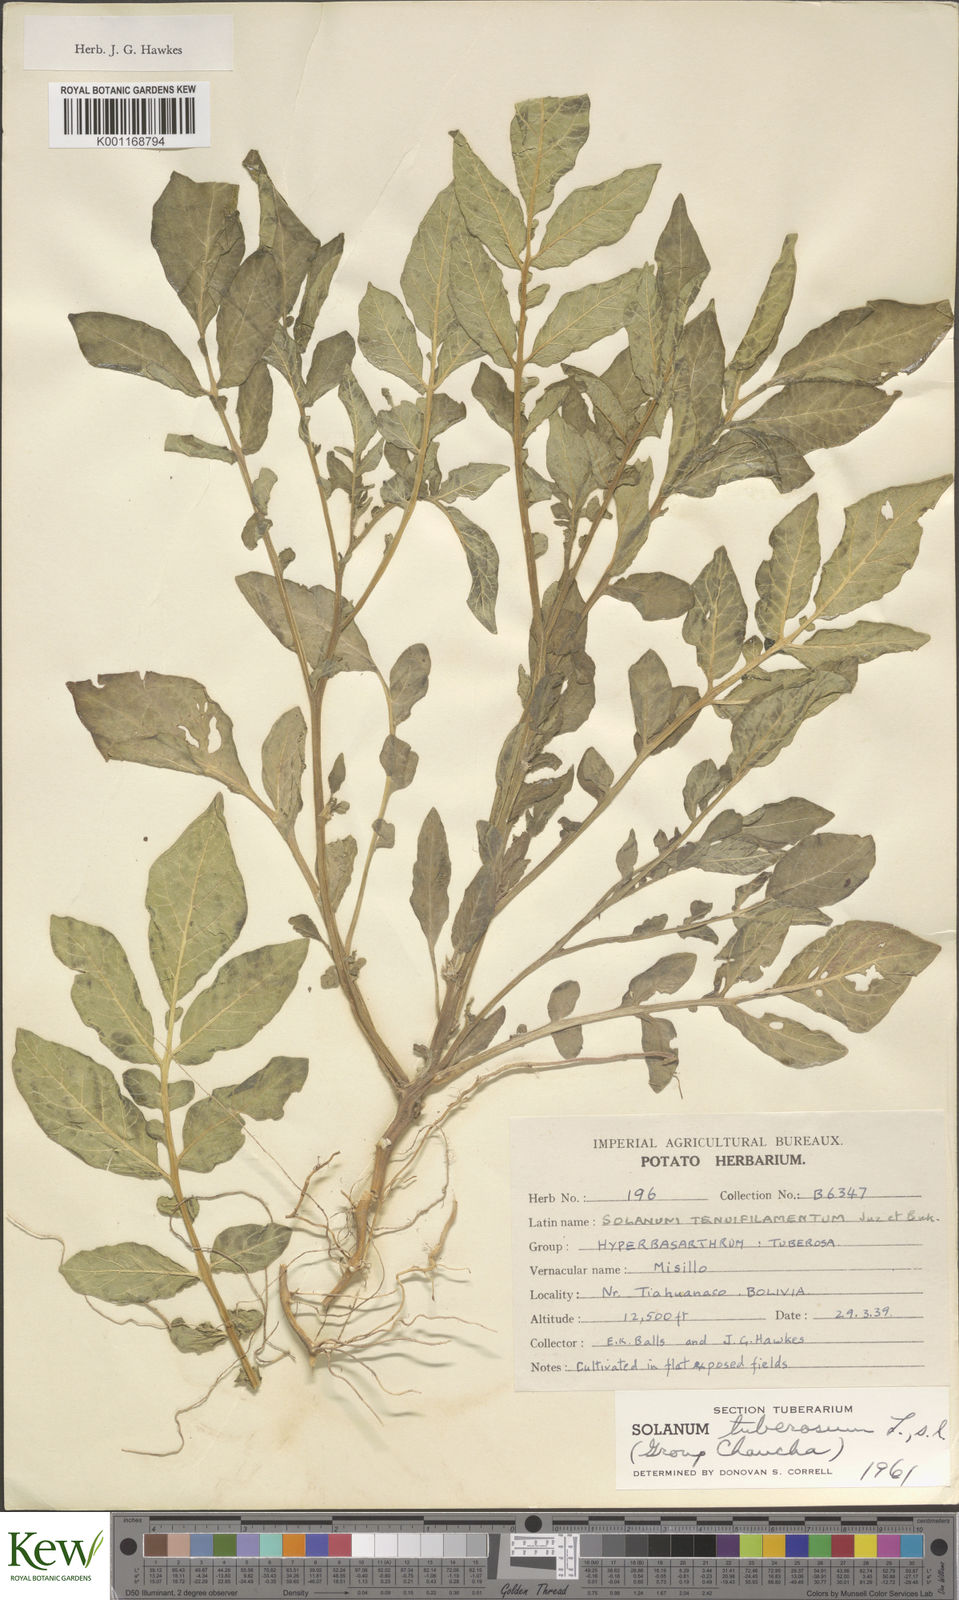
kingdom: Plantae
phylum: Tracheophyta
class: Magnoliopsida
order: Solanales
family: Solanaceae
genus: Solanum
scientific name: Solanum chaucha
